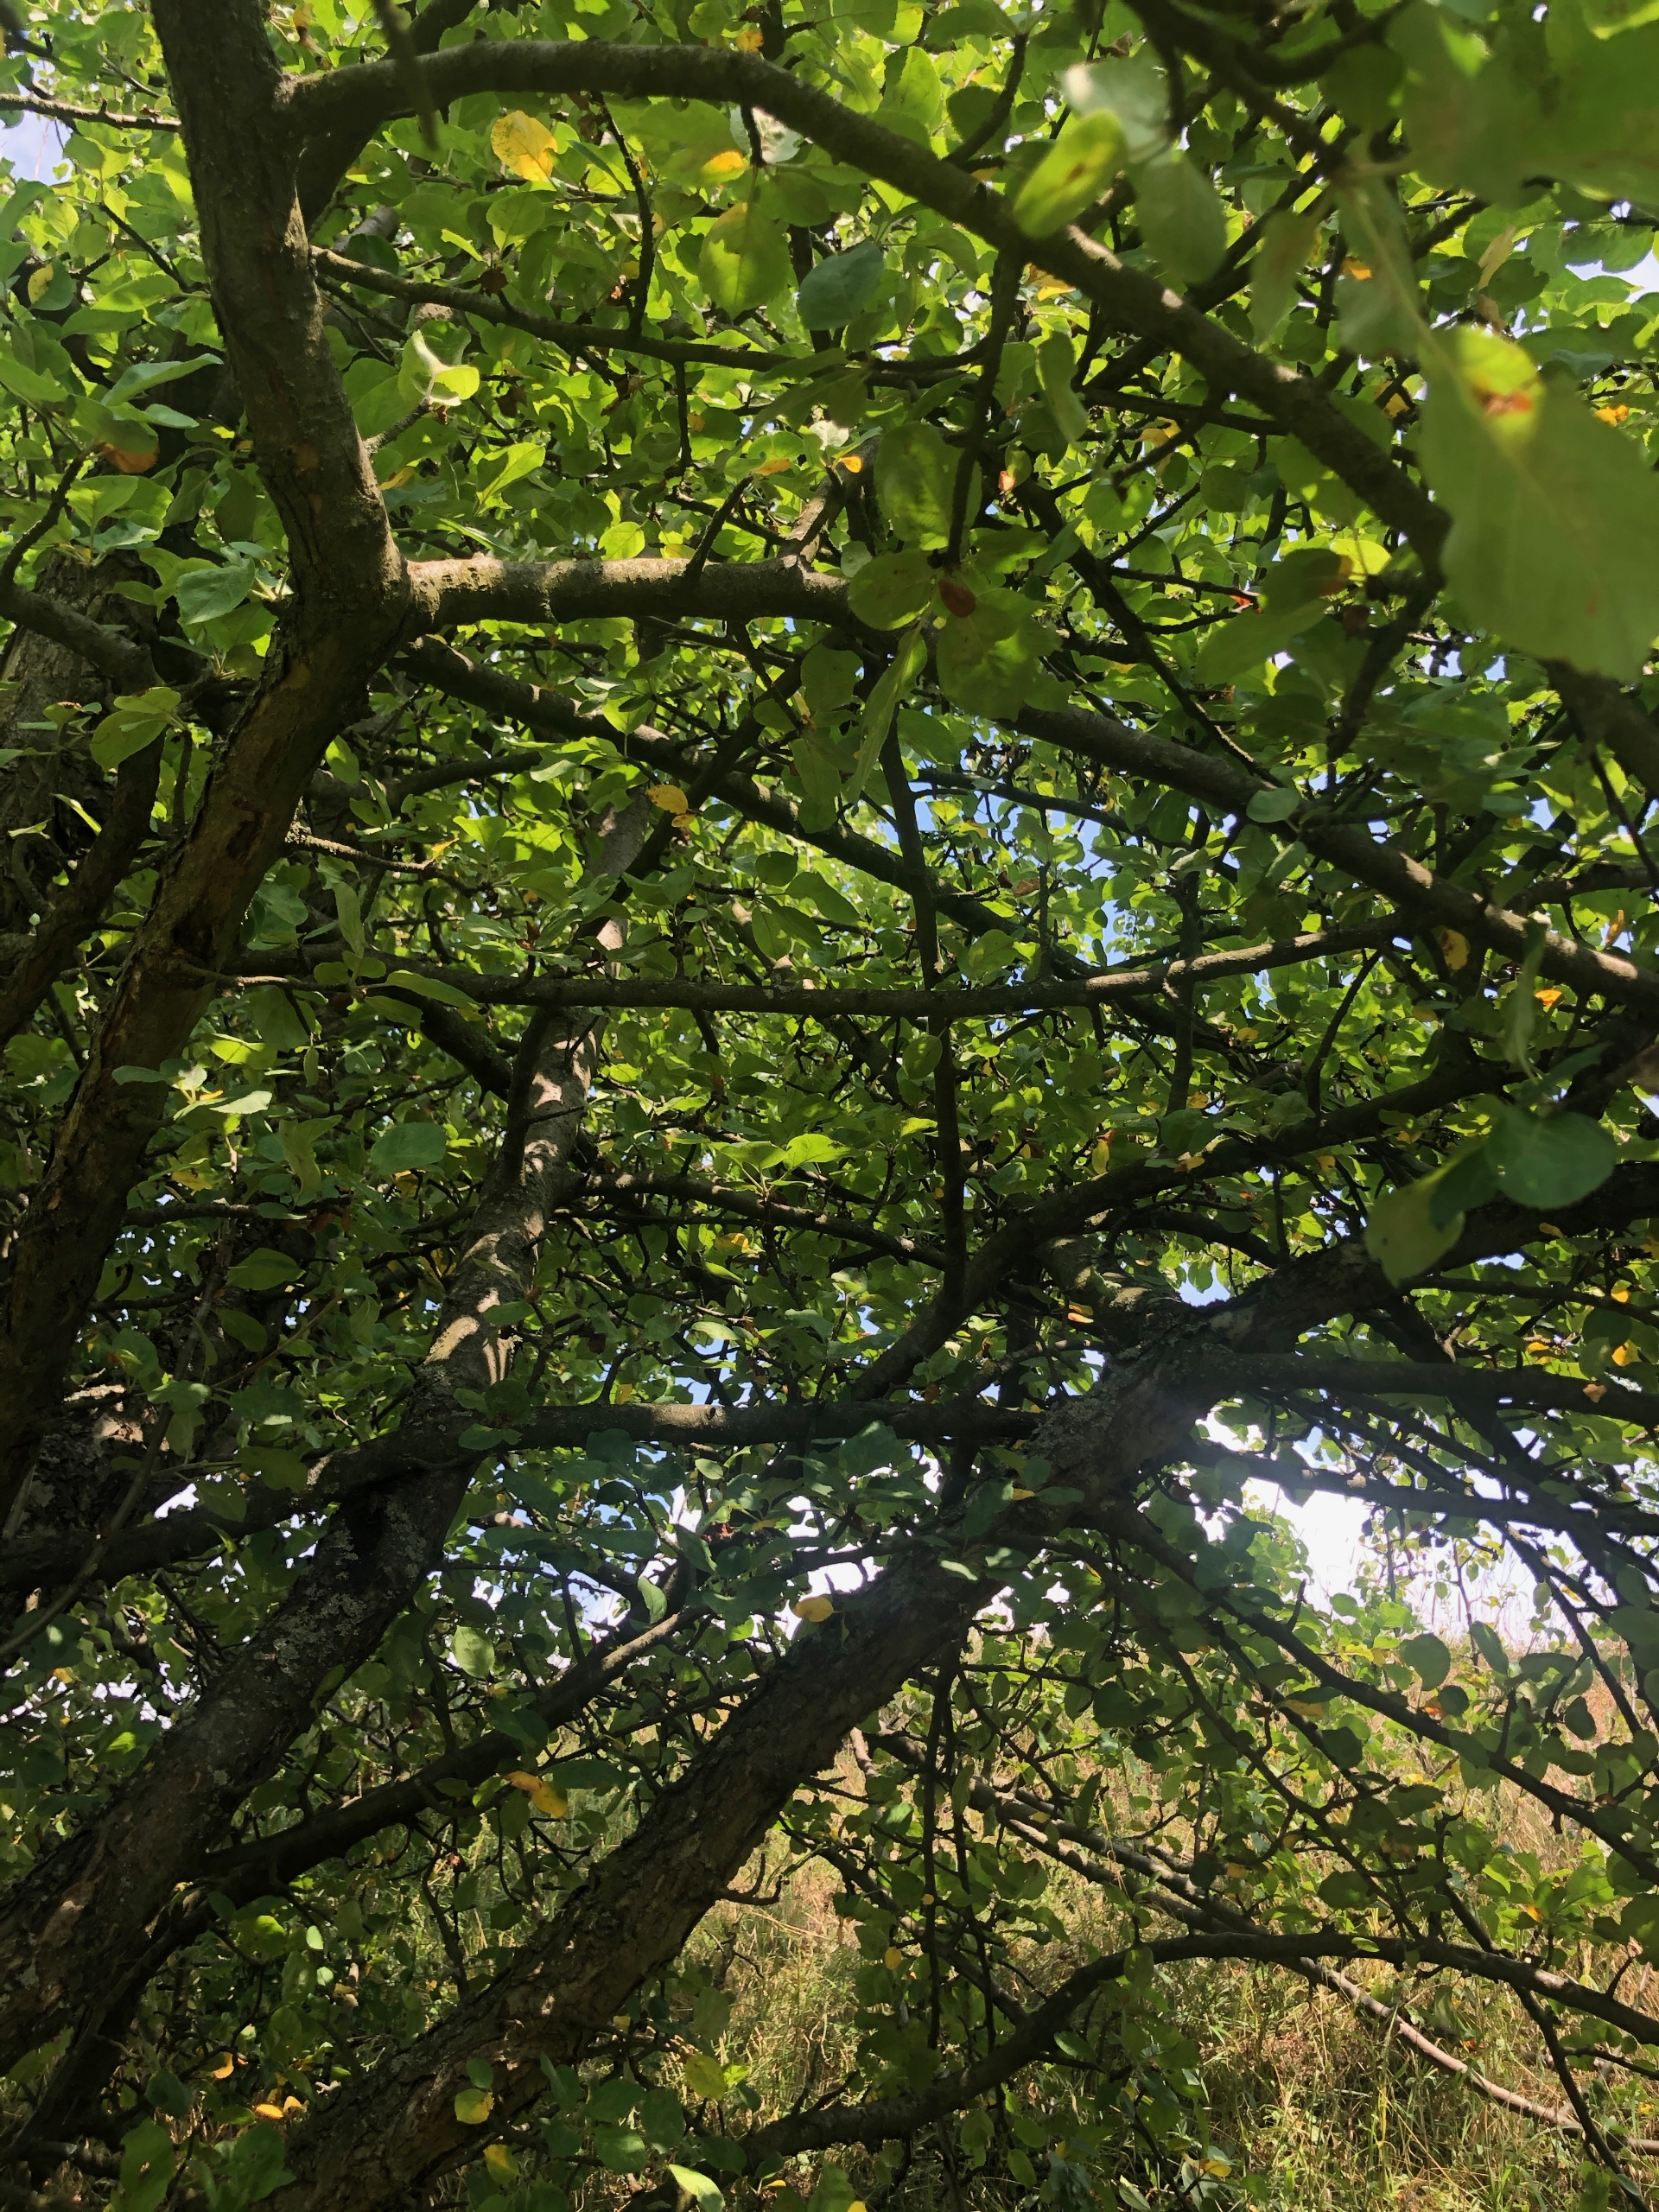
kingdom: Plantae
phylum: Tracheophyta
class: Magnoliopsida
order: Rosales
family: Rosaceae
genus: Malus
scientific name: Malus domestica
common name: Sød-æble
